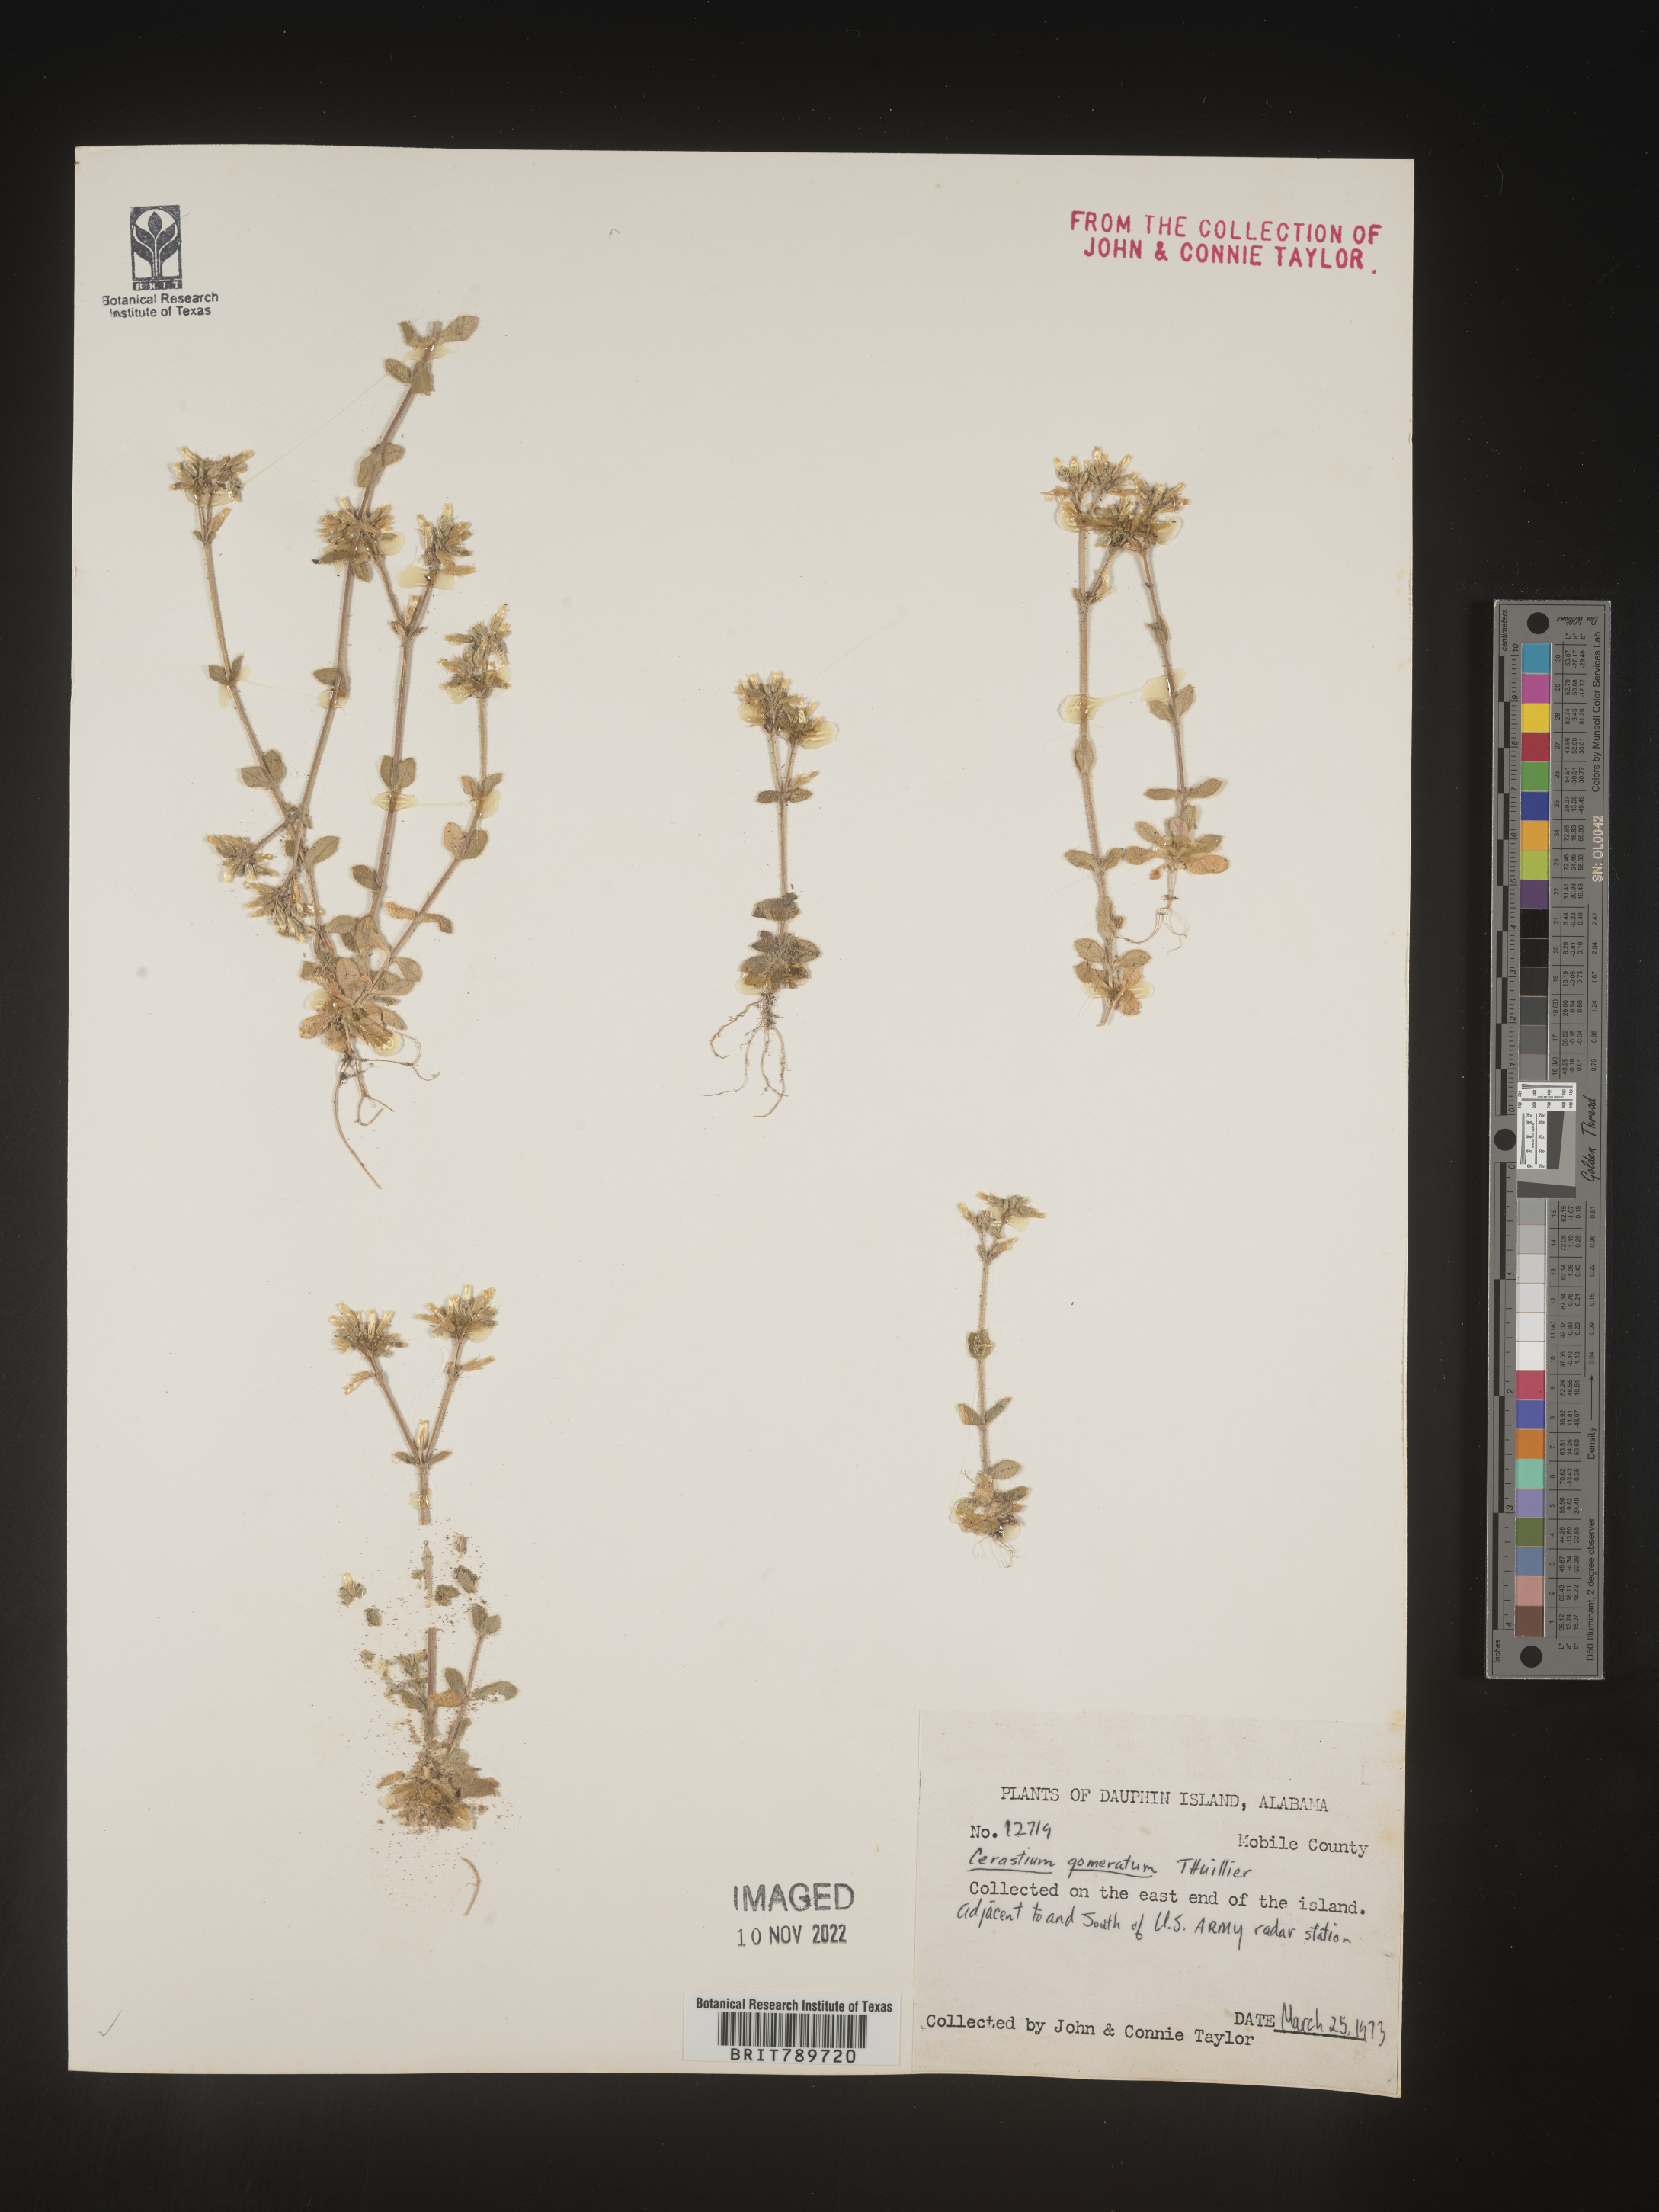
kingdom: Plantae
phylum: Tracheophyta
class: Magnoliopsida
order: Caryophyllales
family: Caryophyllaceae
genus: Cerastium
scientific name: Cerastium glomeratum
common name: Sticky chickweed
